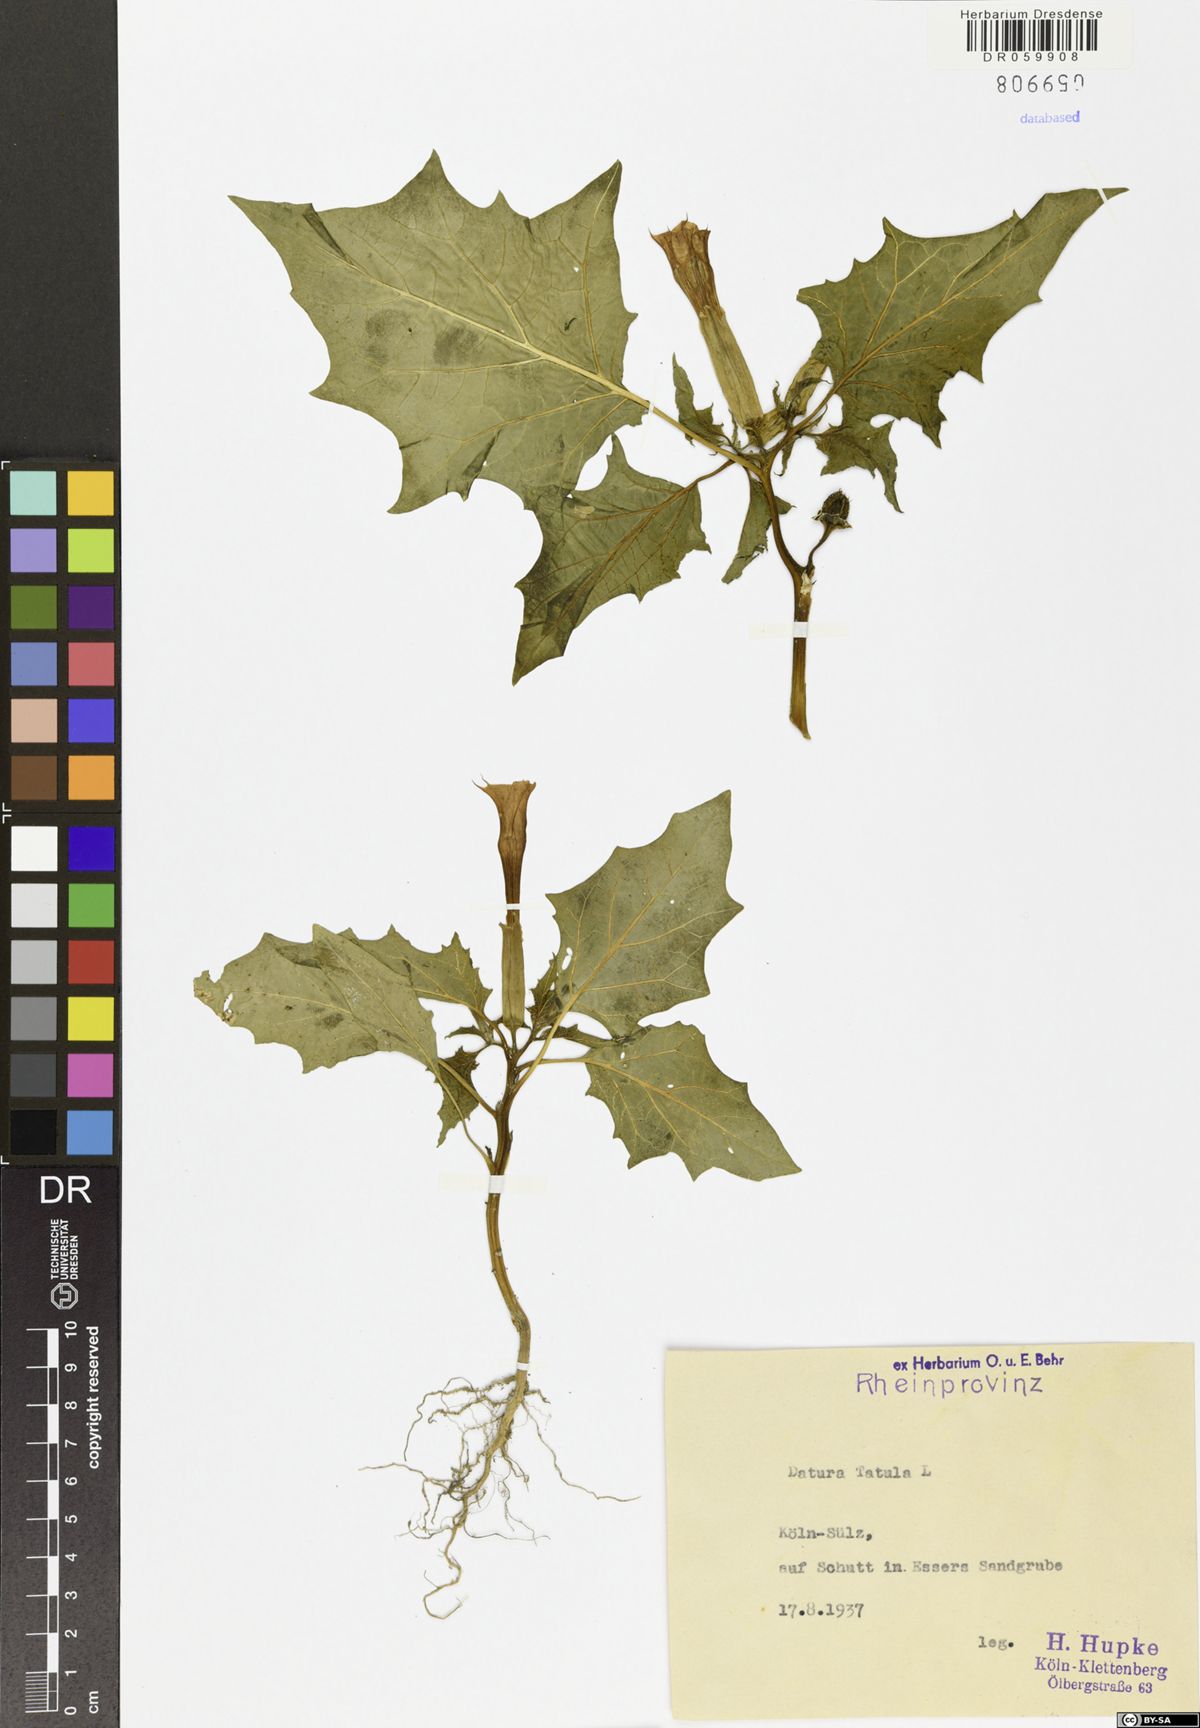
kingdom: Plantae
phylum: Tracheophyta
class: Magnoliopsida
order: Solanales
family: Solanaceae
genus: Datura
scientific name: Datura stramonium
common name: Thorn-apple
